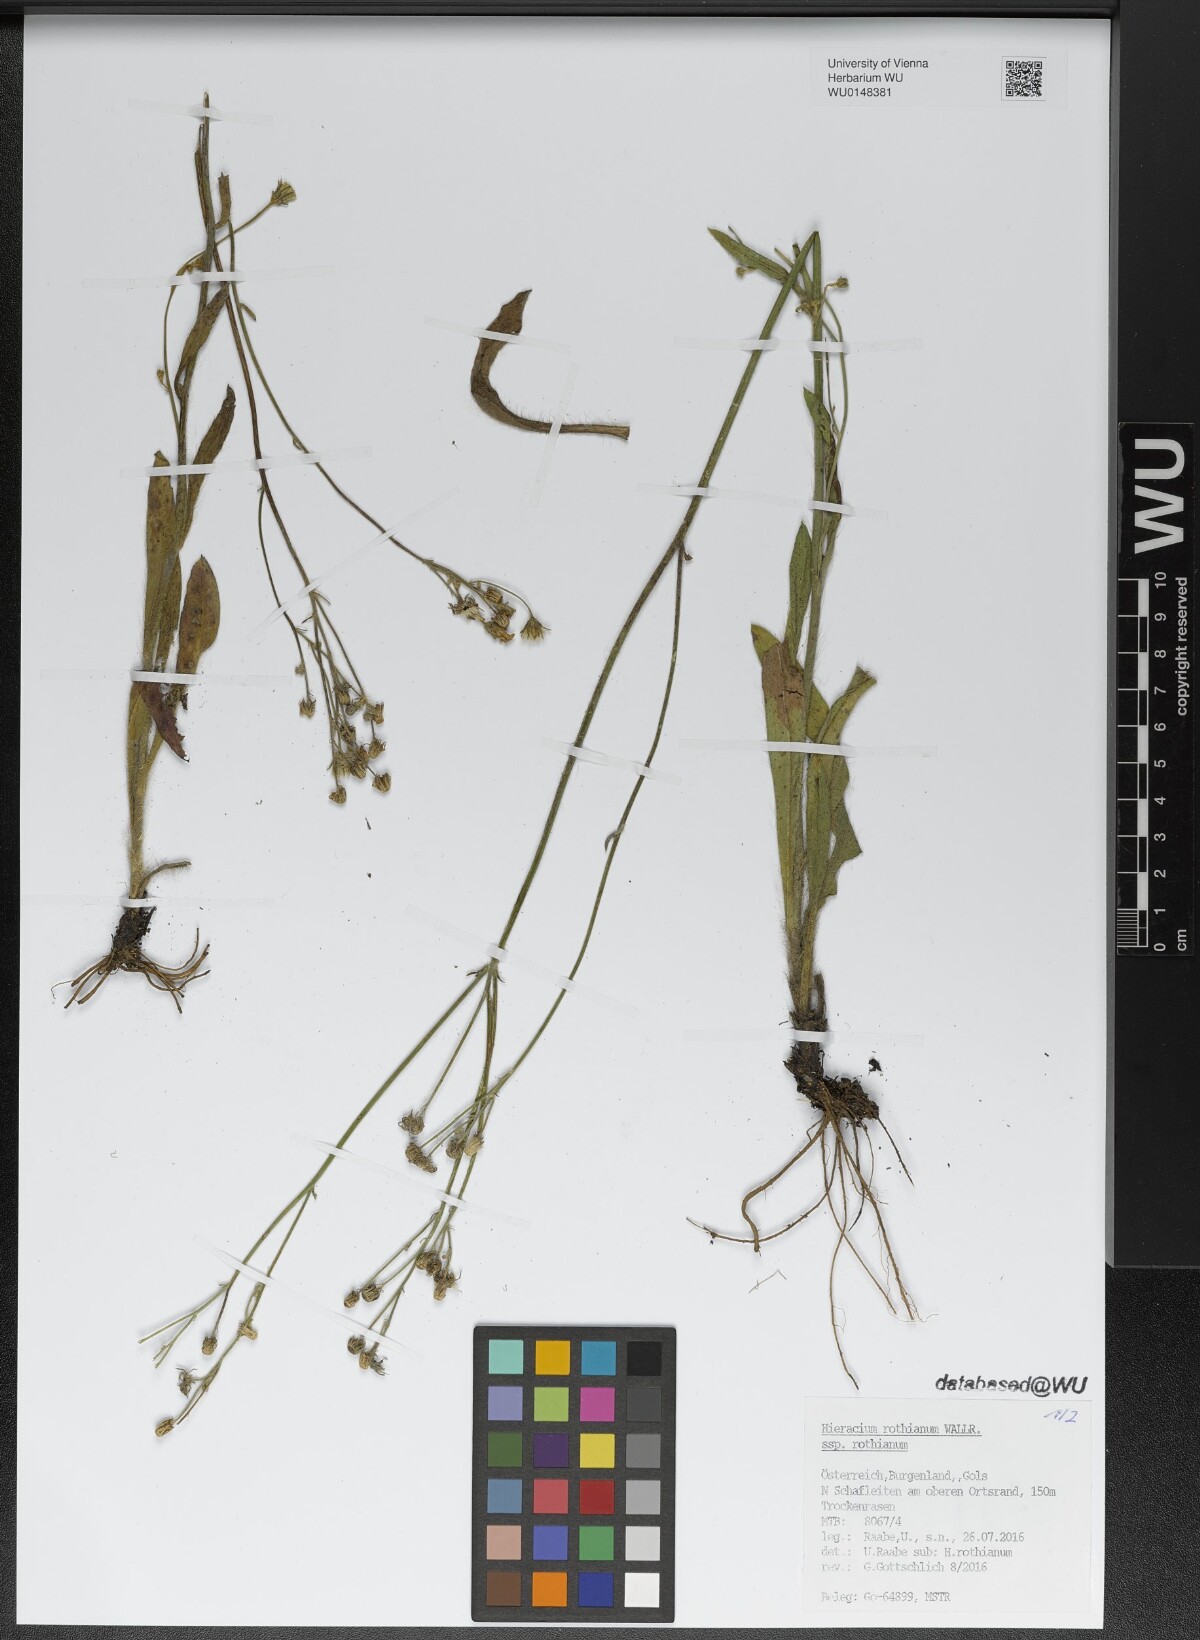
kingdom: Plantae
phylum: Tracheophyta
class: Magnoliopsida
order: Asterales
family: Asteraceae
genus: Pilosella
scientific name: Pilosella rothiana
